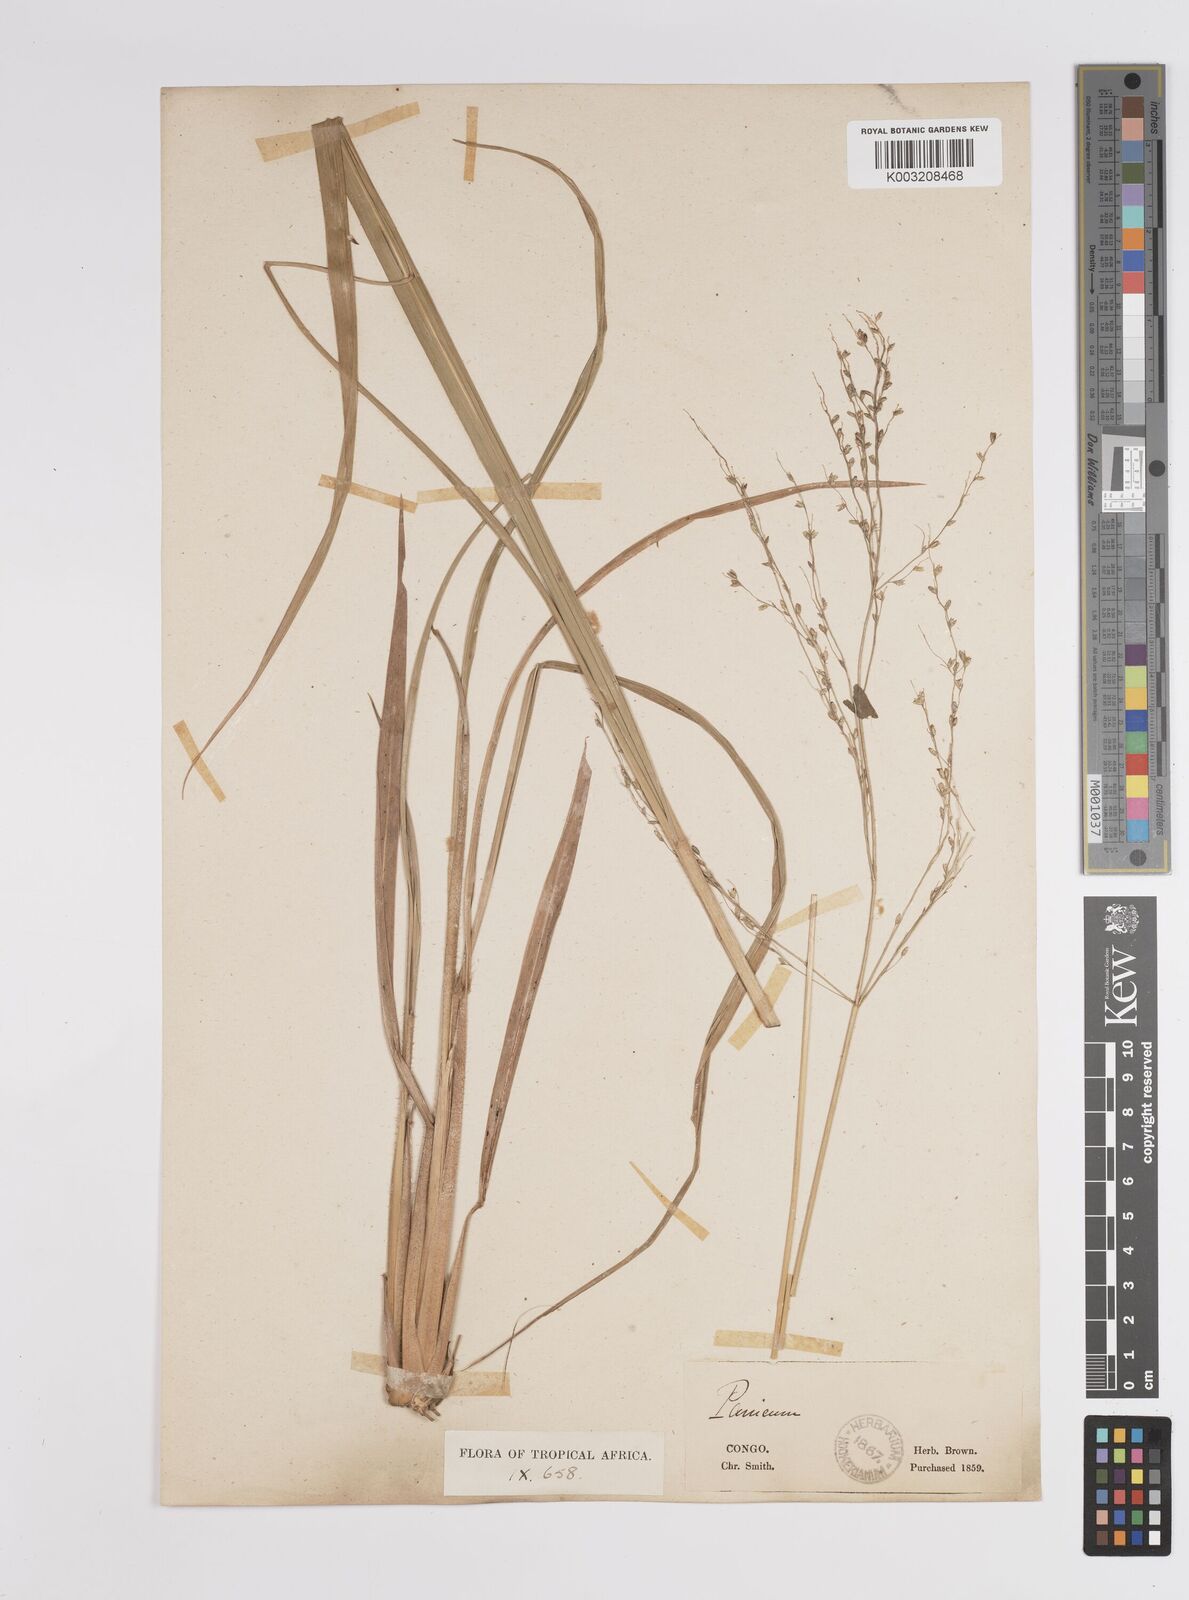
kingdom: Plantae
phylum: Tracheophyta
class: Liliopsida
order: Poales
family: Poaceae
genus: Megathyrsus
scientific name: Megathyrsus maximus
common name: Guineagrass
